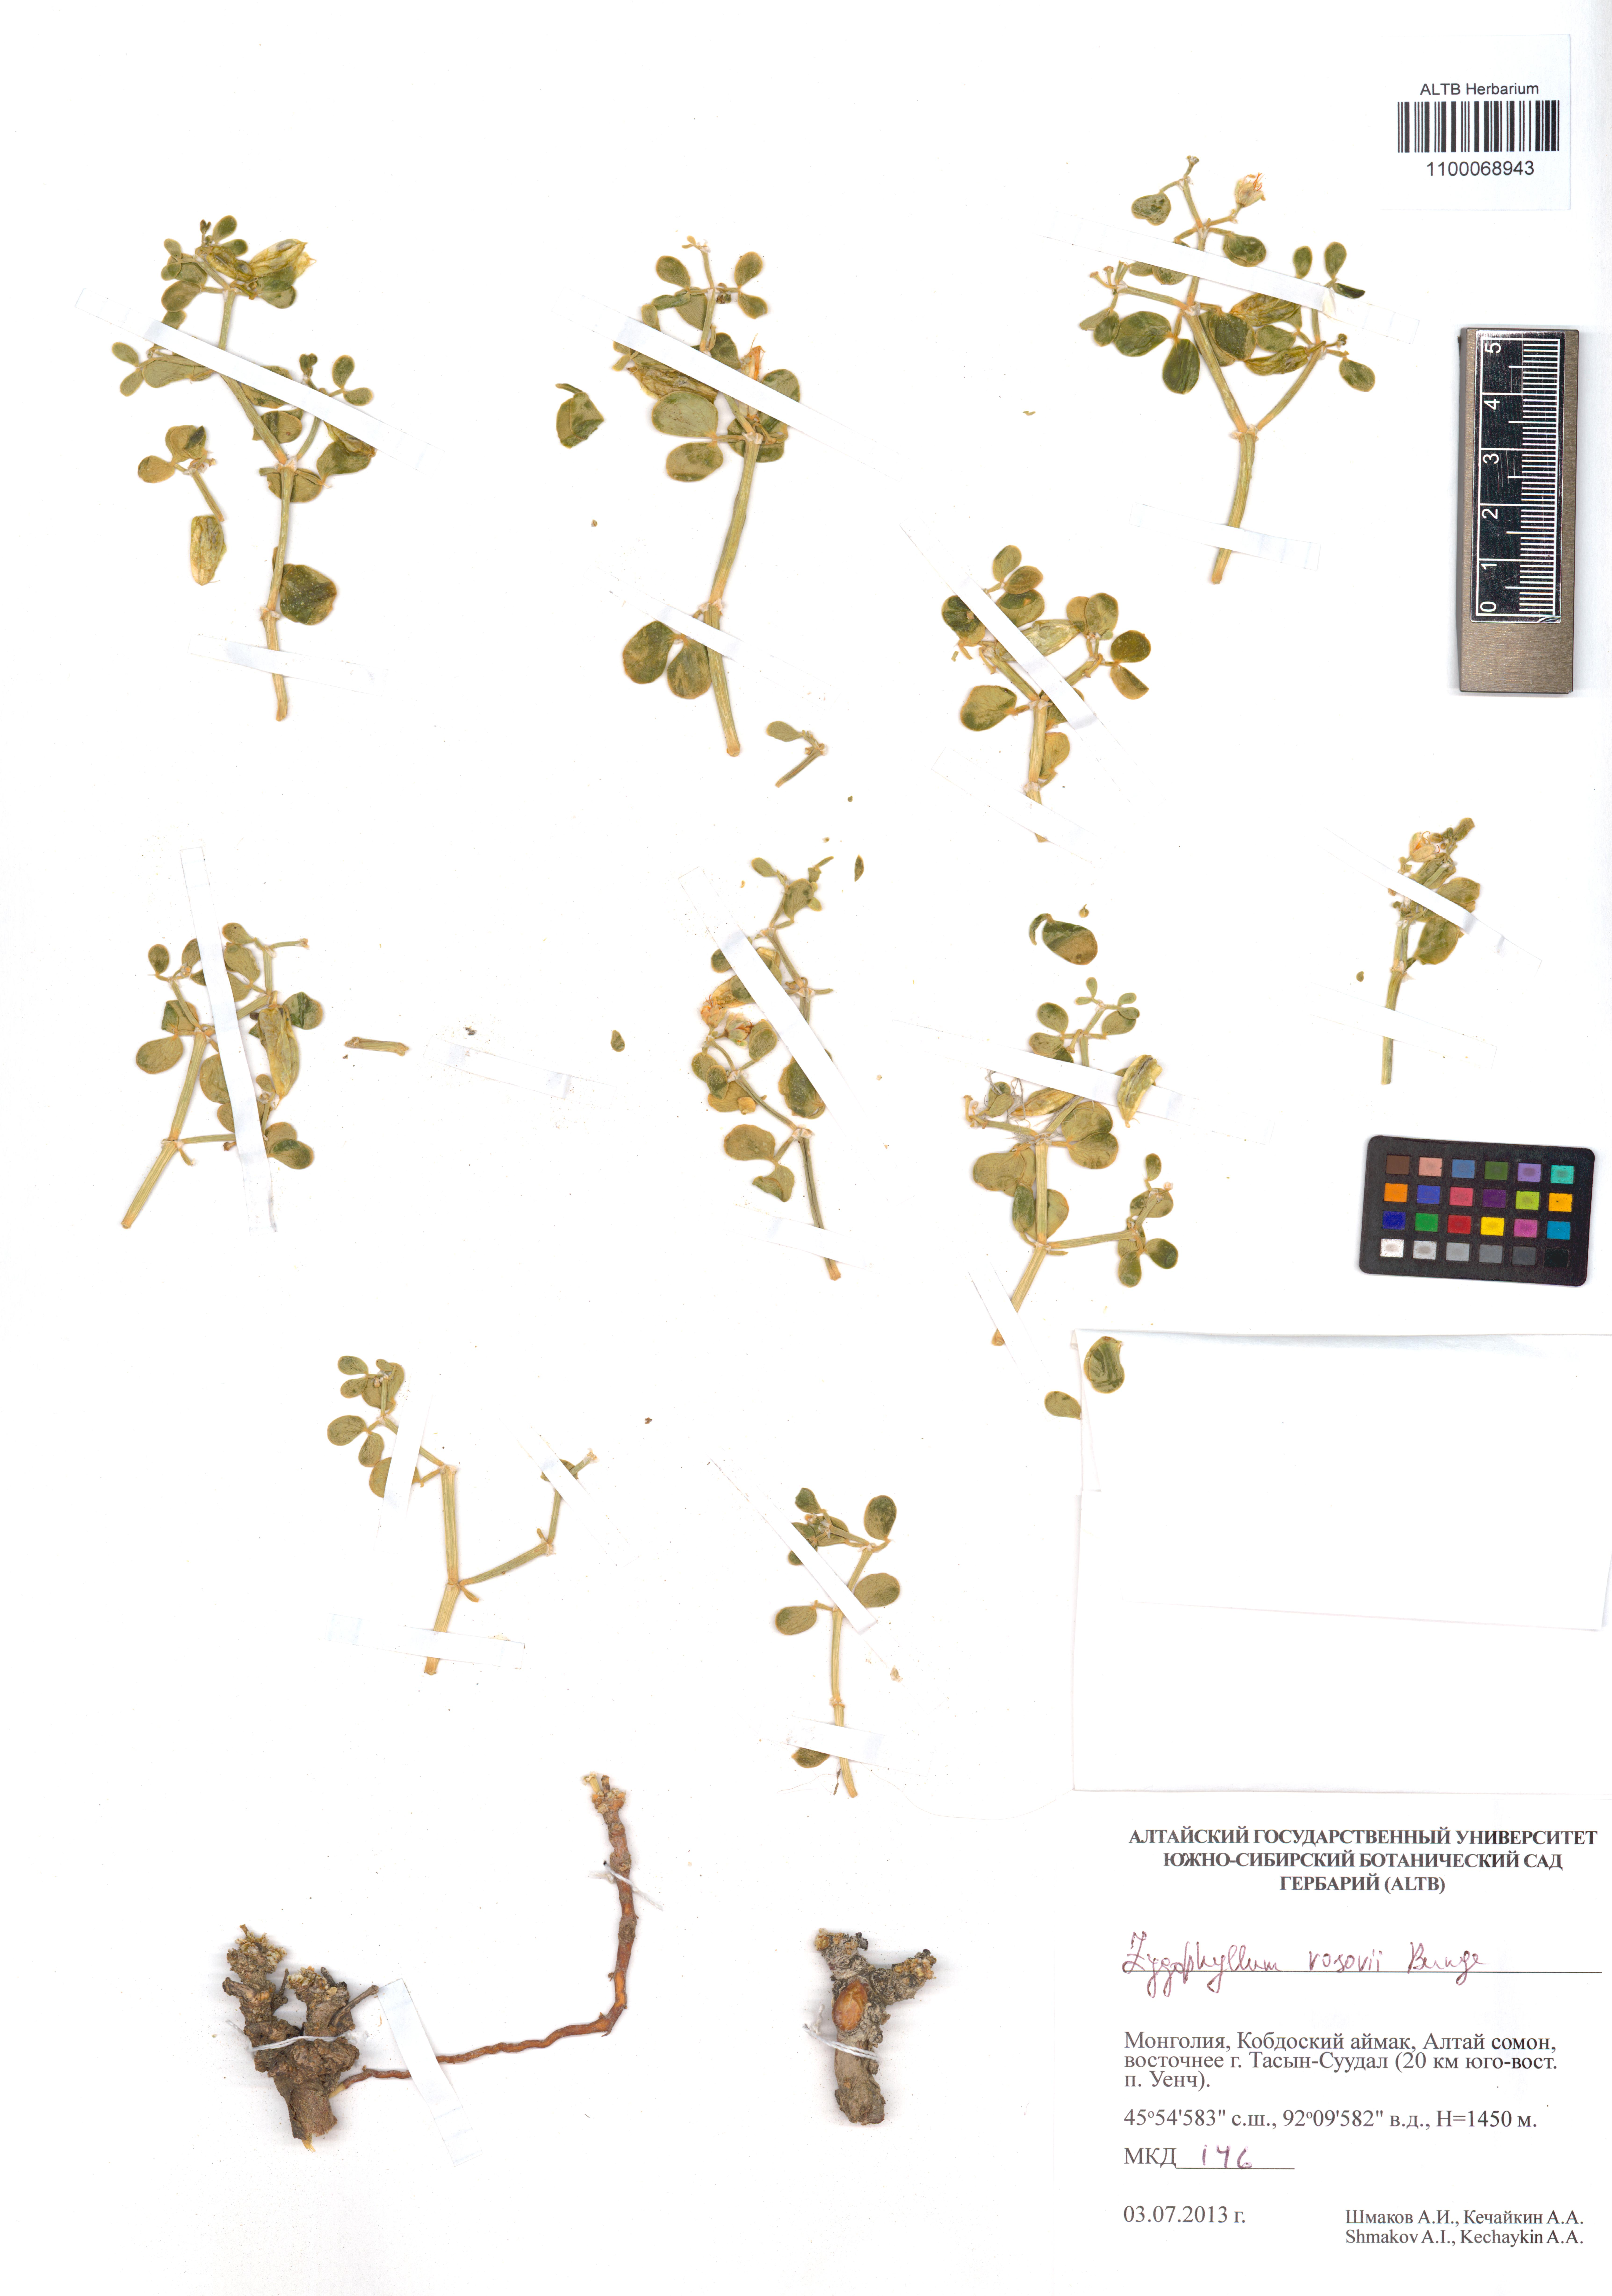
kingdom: Plantae
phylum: Tracheophyta
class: Magnoliopsida
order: Zygophyllales
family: Zygophyllaceae
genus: Zygophyllum
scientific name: Zygophyllum rosowii
